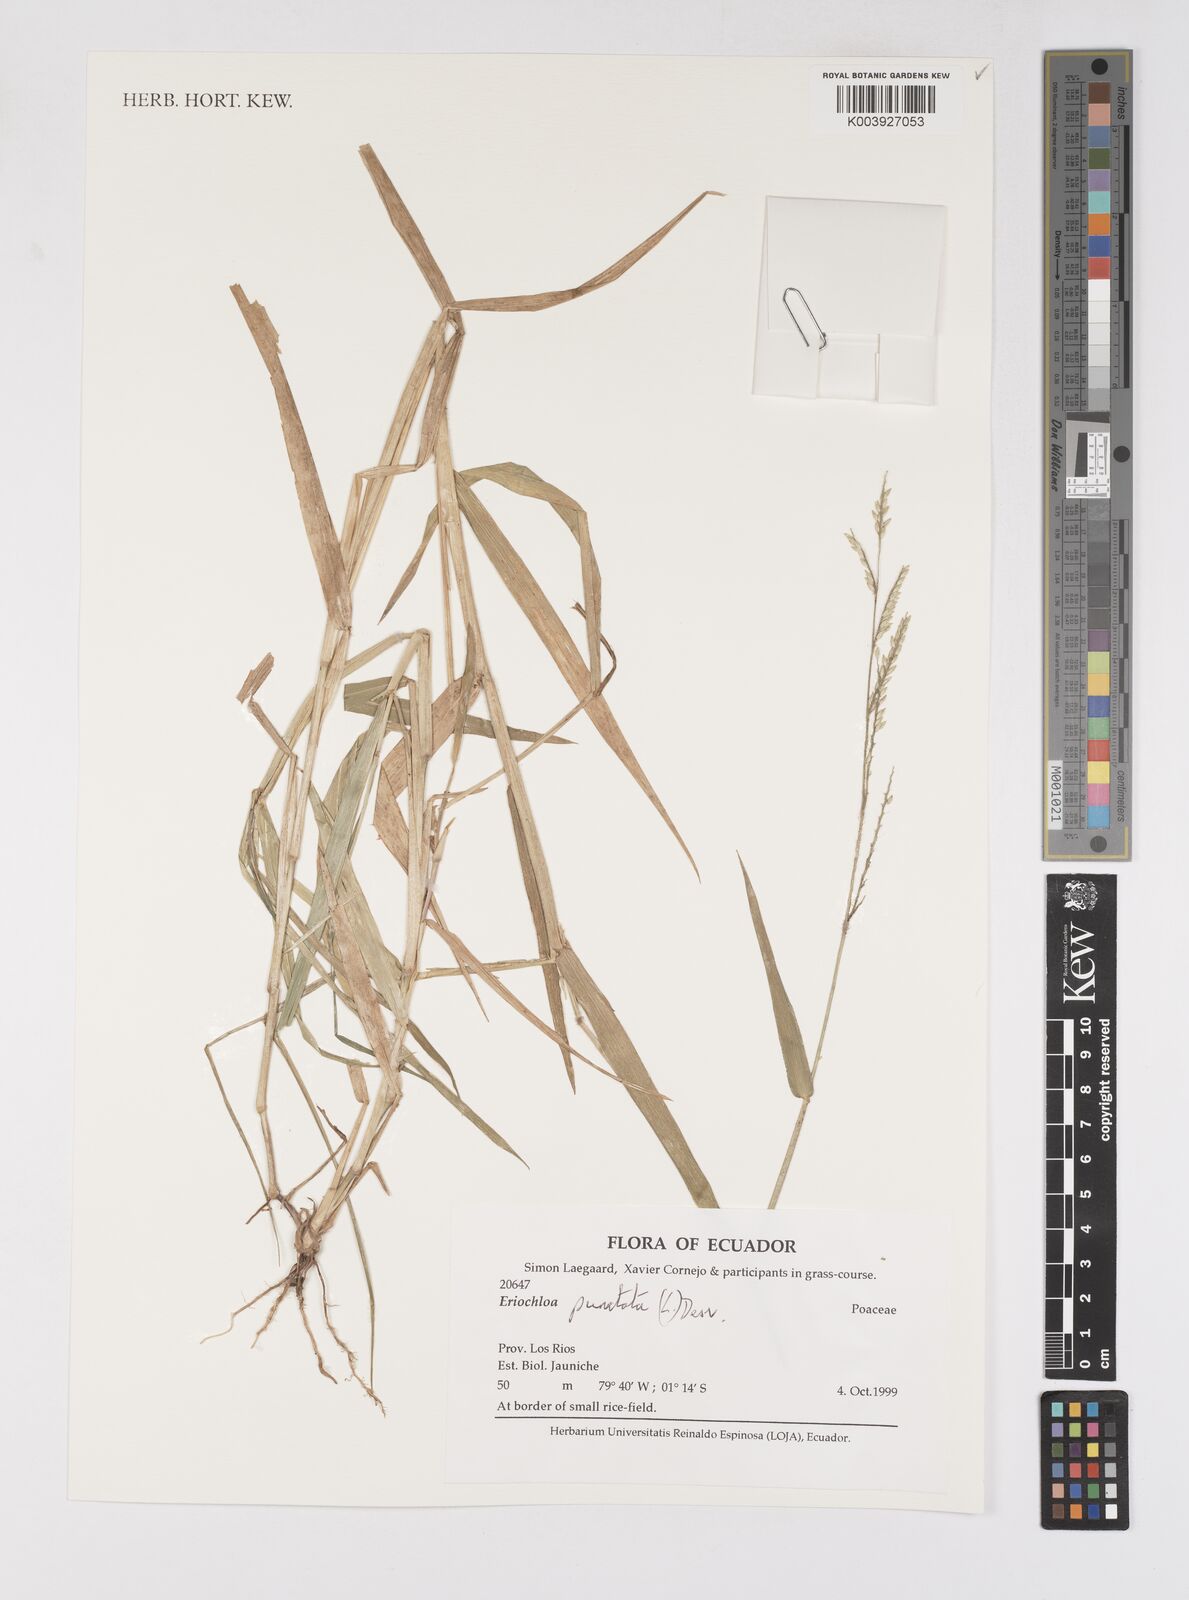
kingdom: Plantae
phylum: Tracheophyta
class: Liliopsida
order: Poales
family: Poaceae
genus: Eriochloa
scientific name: Eriochloa punctata
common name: Louisiana cupgrass
